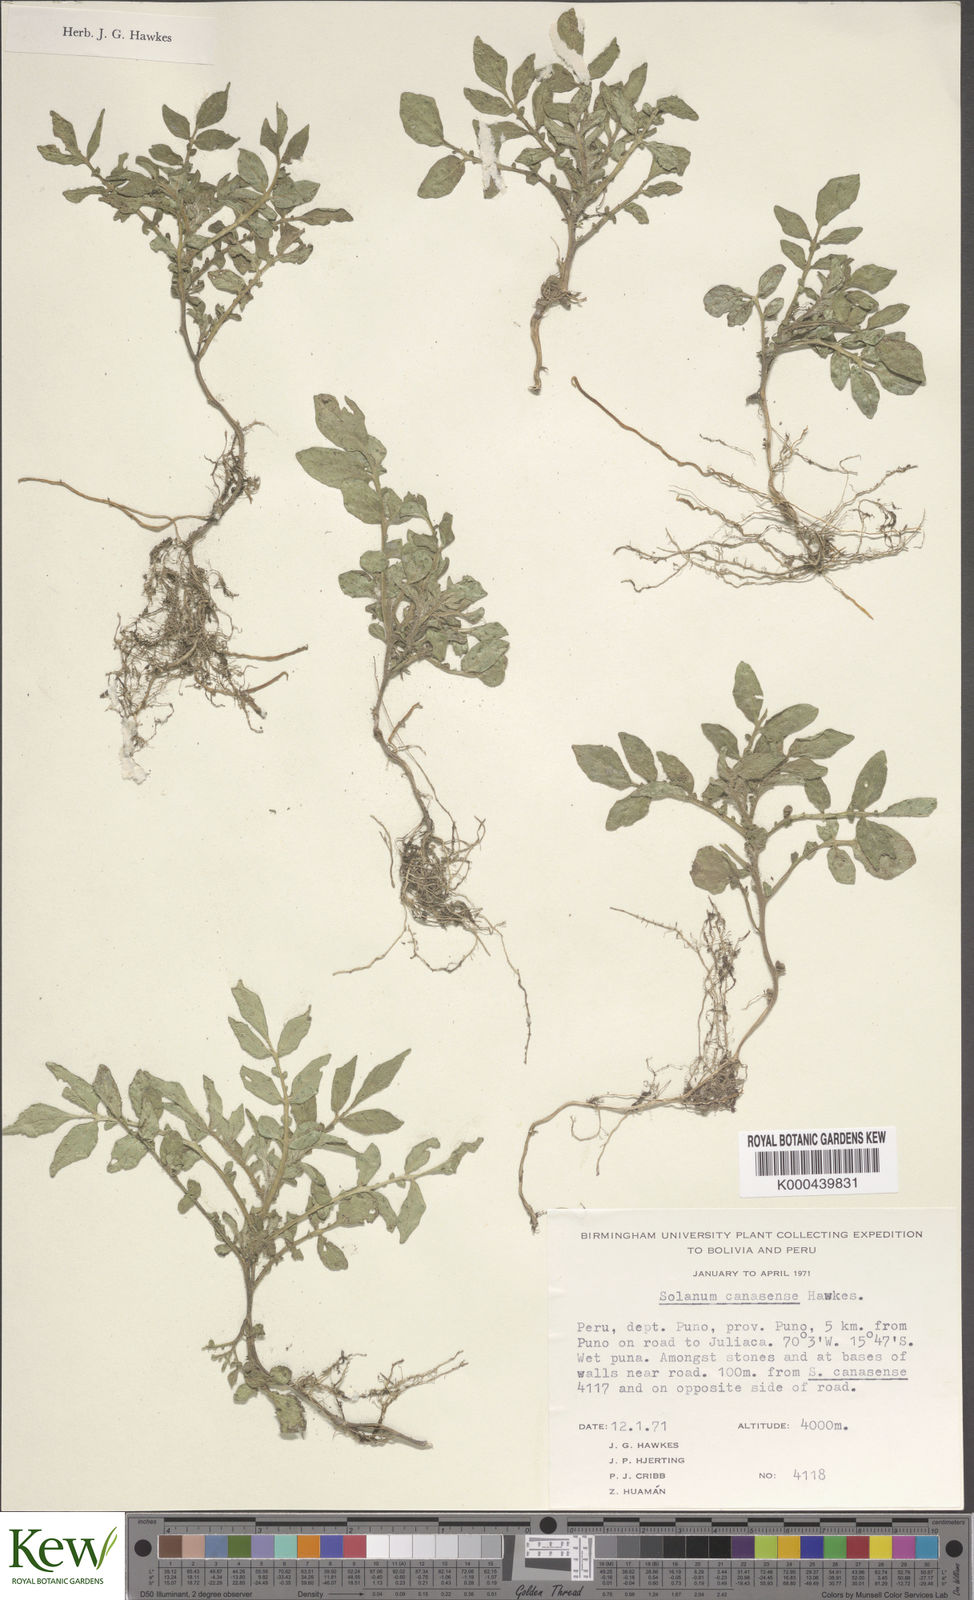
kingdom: Plantae
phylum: Tracheophyta
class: Magnoliopsida
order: Solanales
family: Solanaceae
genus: Solanum
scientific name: Solanum candolleanum
